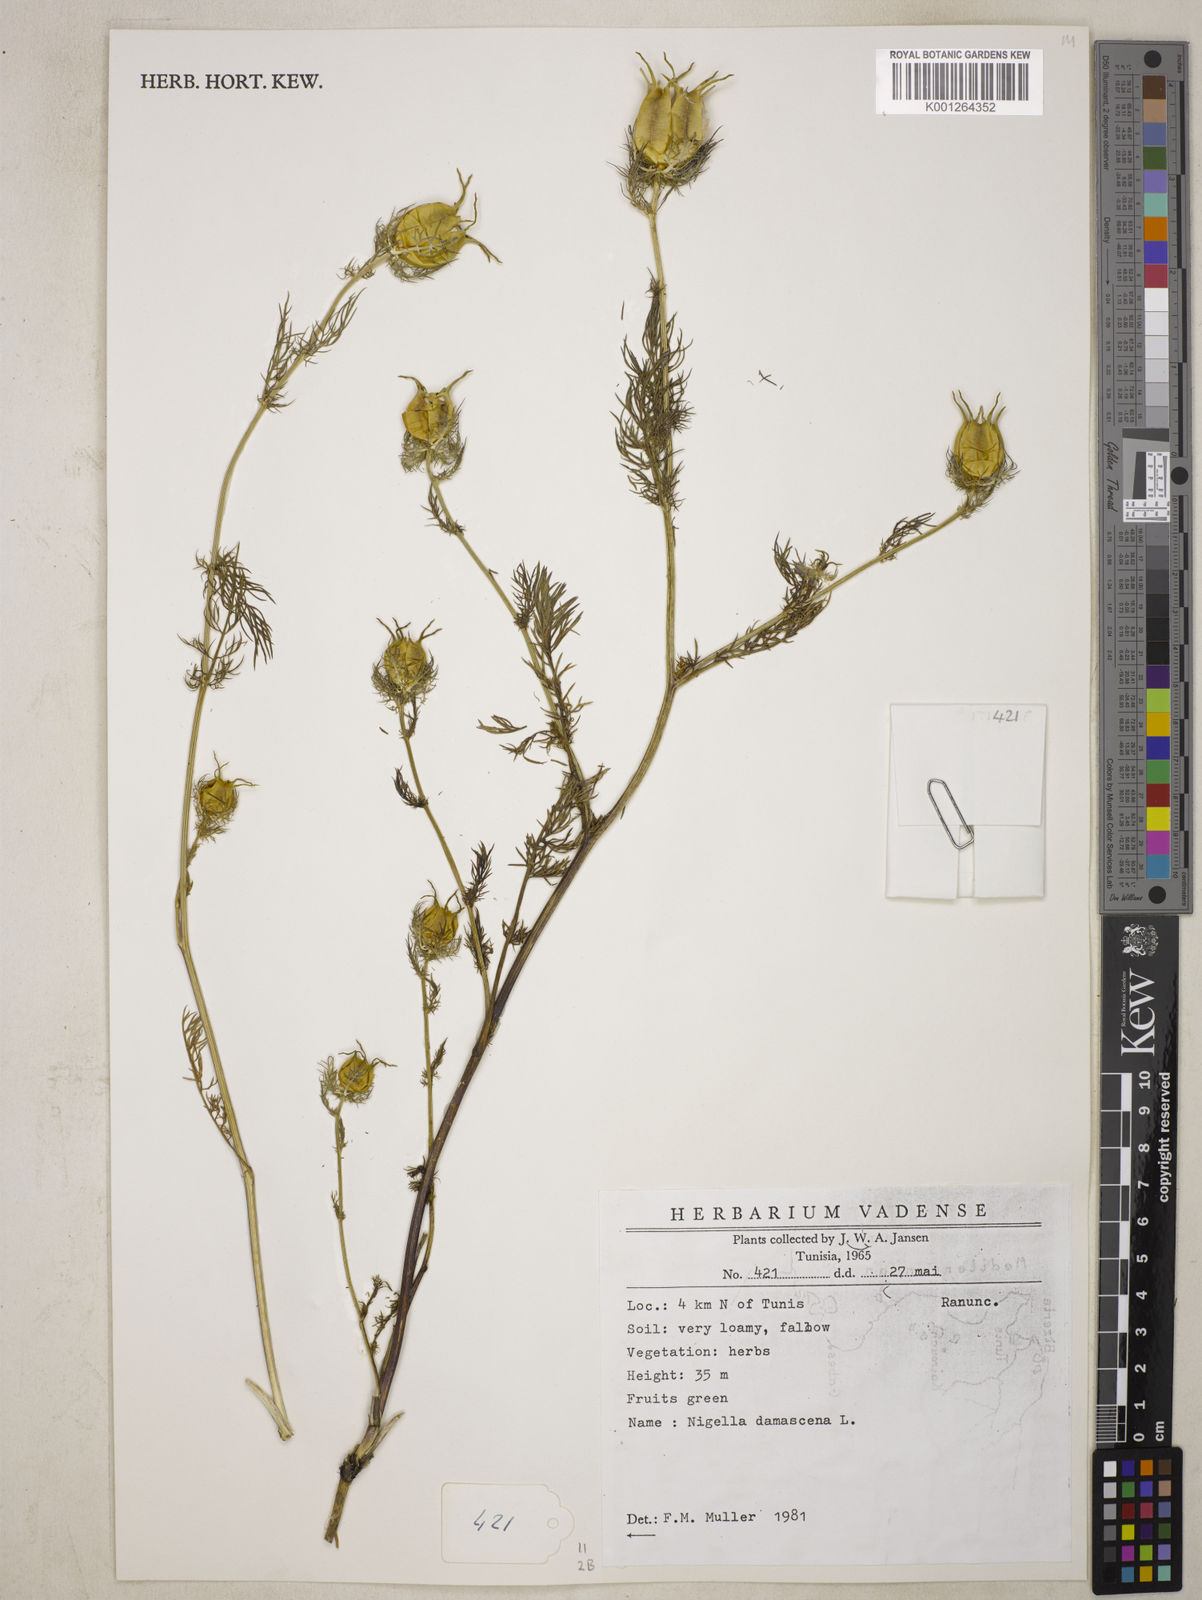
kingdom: Plantae
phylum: Tracheophyta
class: Magnoliopsida
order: Ranunculales
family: Ranunculaceae
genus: Nigella
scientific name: Nigella damascena
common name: Love-in-a-mist
